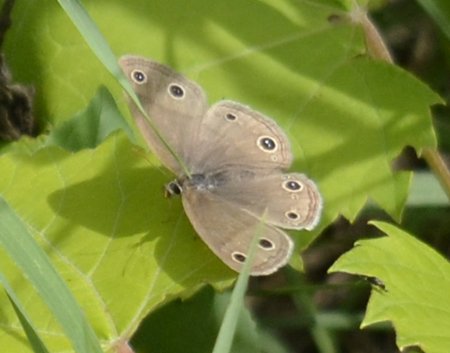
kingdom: Animalia
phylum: Arthropoda
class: Insecta
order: Lepidoptera
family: Nymphalidae
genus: Euptychia
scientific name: Euptychia cymela
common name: Little Wood Satyr
